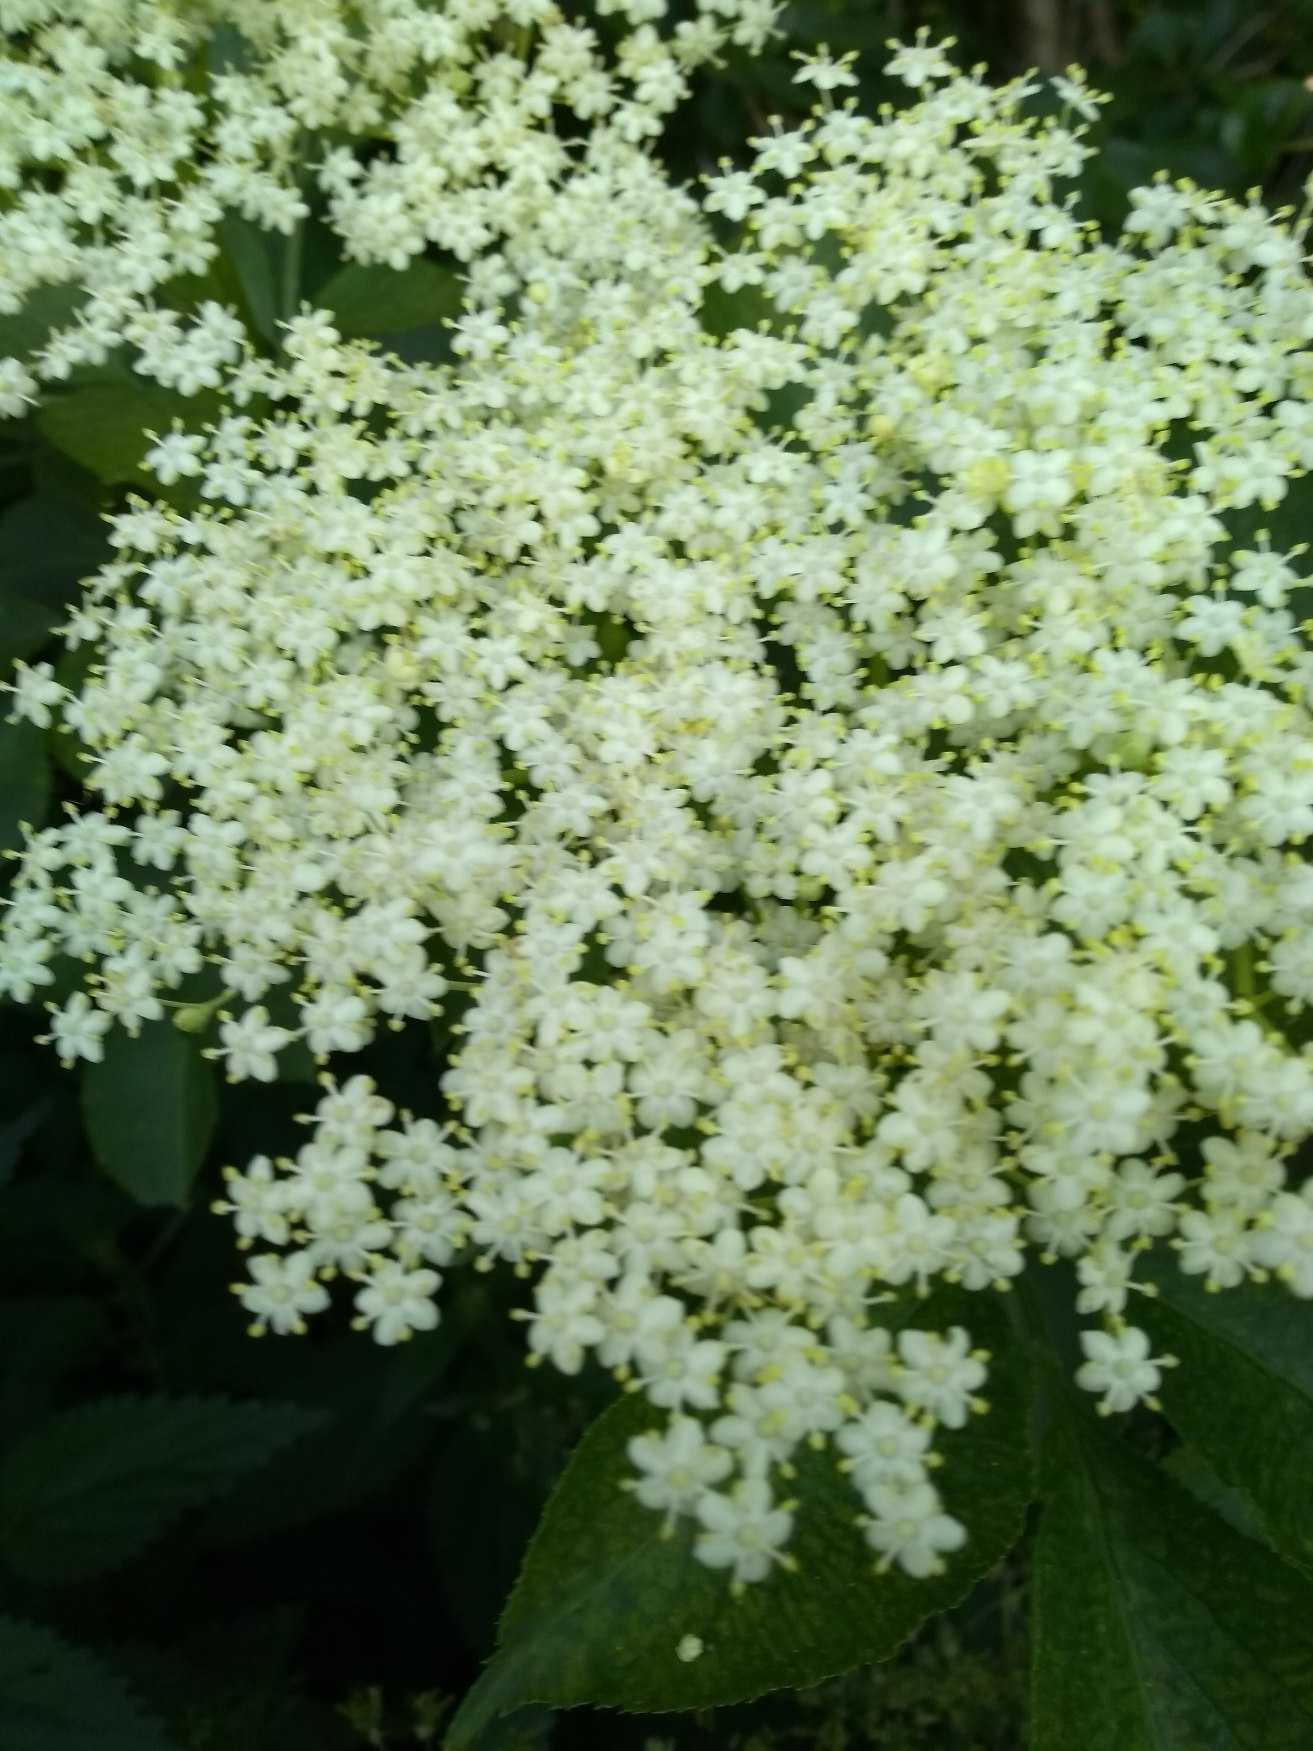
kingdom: Plantae
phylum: Tracheophyta
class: Magnoliopsida
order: Dipsacales
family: Viburnaceae
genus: Sambucus
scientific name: Sambucus nigra
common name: Almindelig hyld
